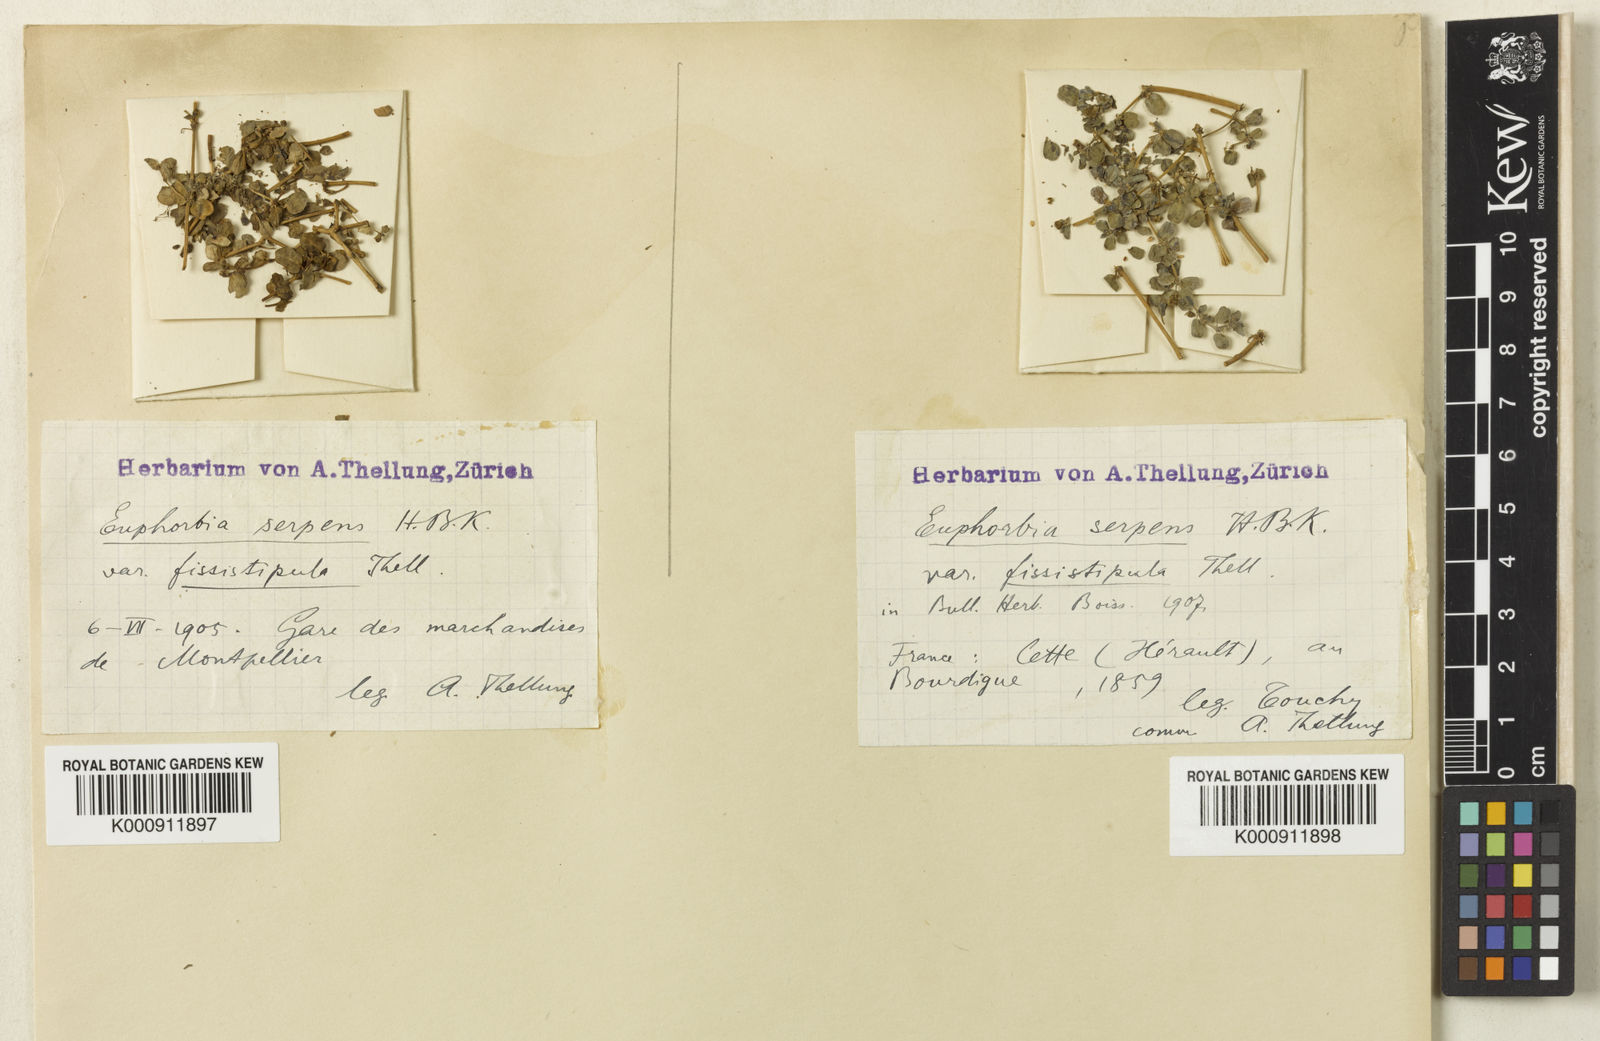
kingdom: Plantae
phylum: Tracheophyta
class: Magnoliopsida
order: Malpighiales
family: Euphorbiaceae
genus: Euphorbia
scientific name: Euphorbia serpens
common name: Matted sandmat
